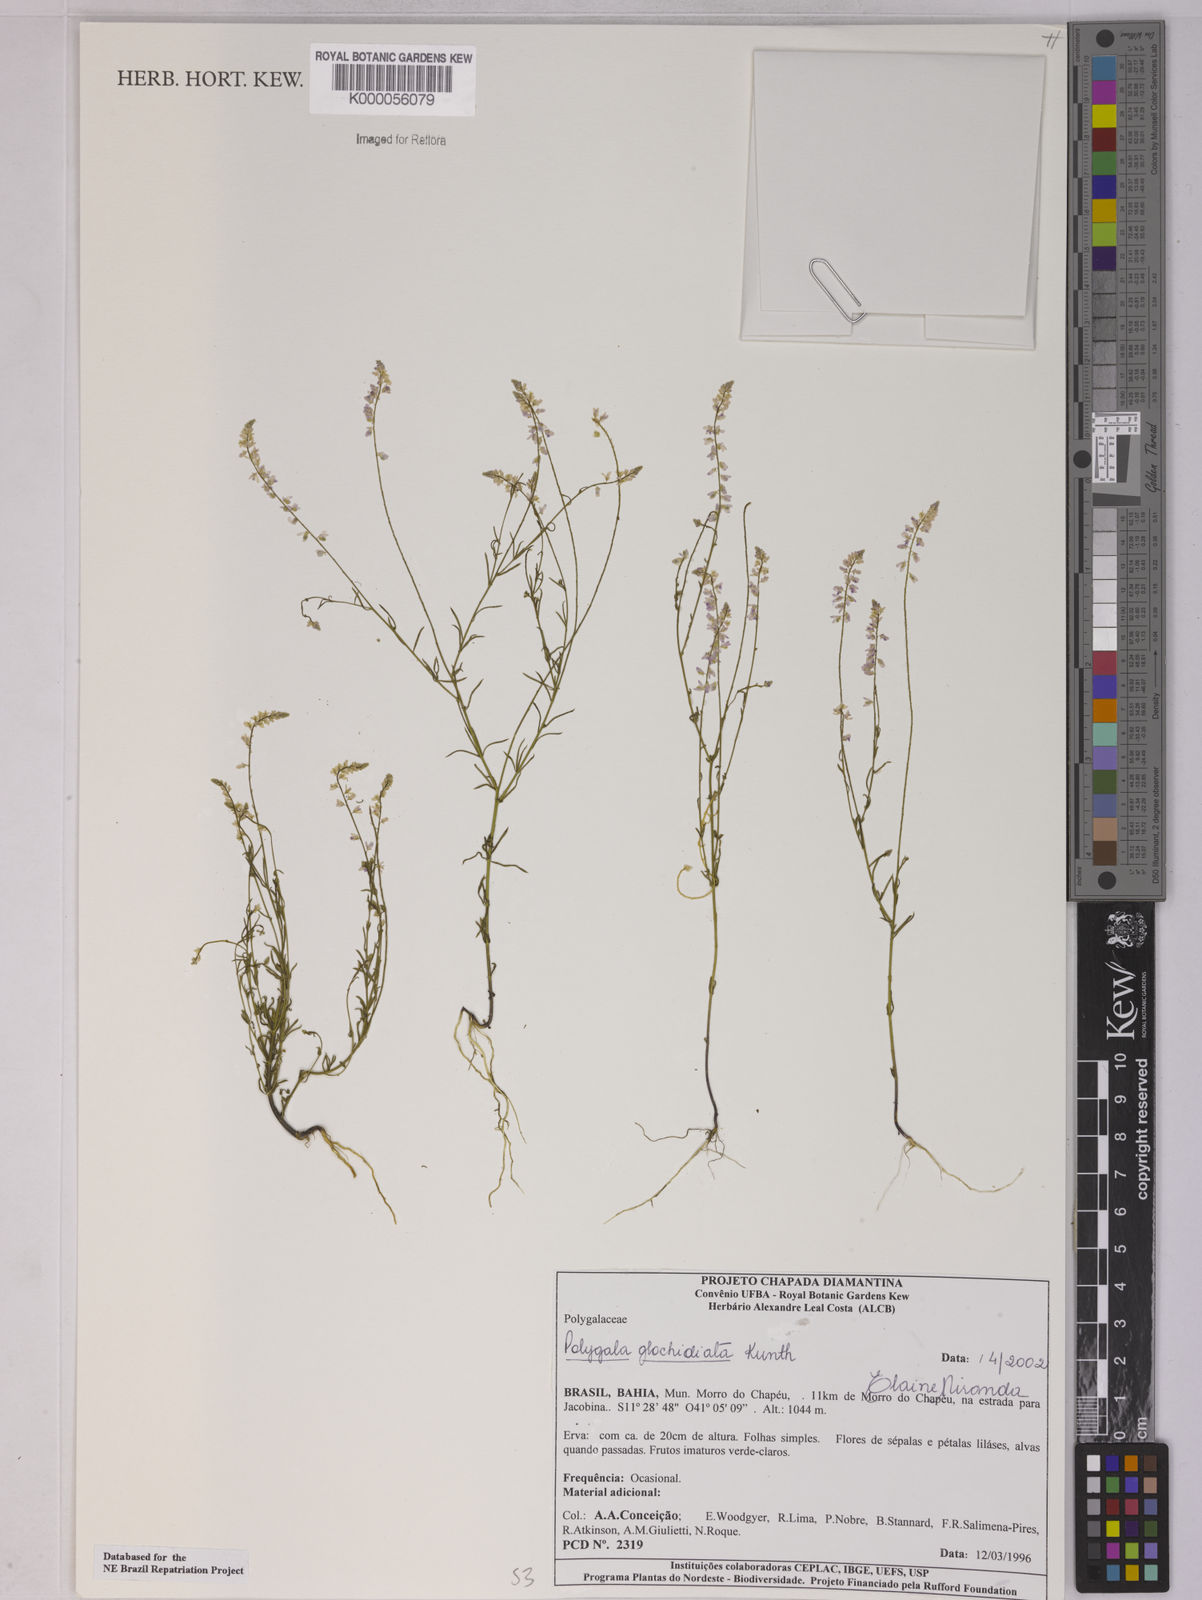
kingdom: Plantae
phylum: Tracheophyta
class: Magnoliopsida
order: Fabales
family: Polygalaceae
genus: Polygala
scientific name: Polygala glochidiata
